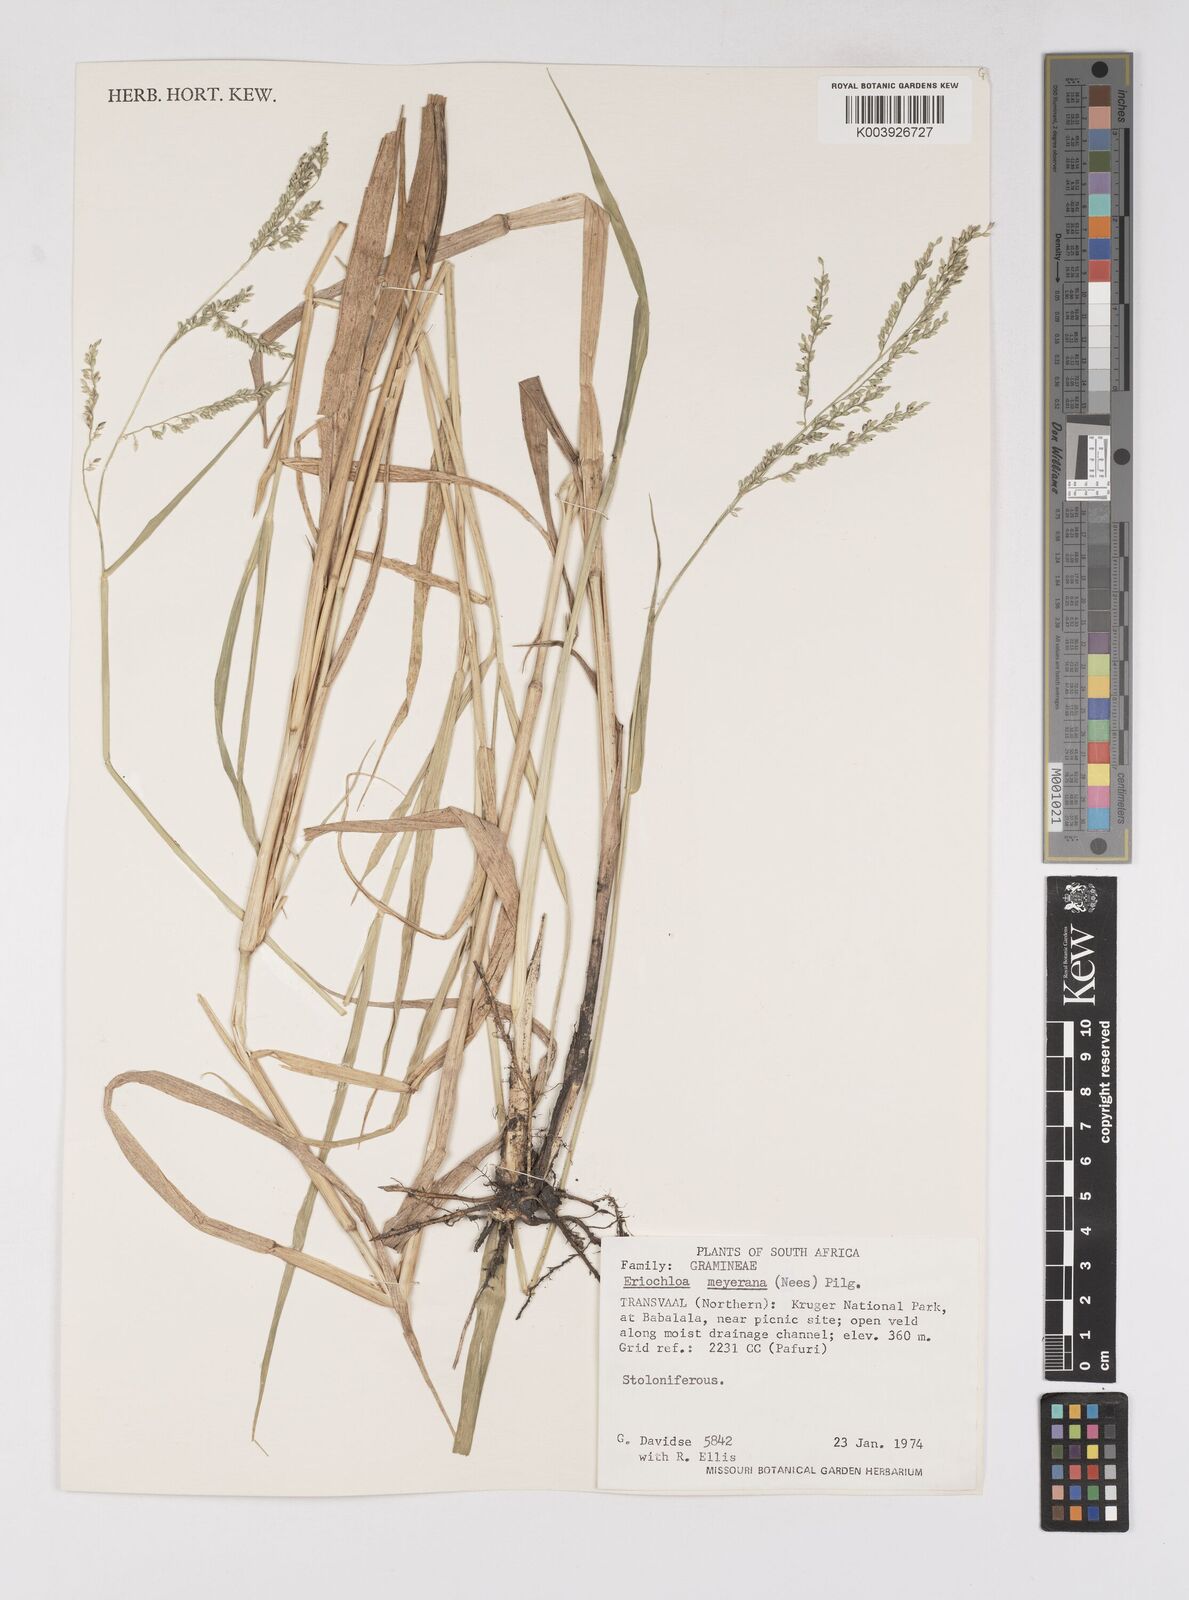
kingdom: Plantae
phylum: Tracheophyta
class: Liliopsida
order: Poales
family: Poaceae
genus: Eriochloa
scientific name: Eriochloa meyeriana
